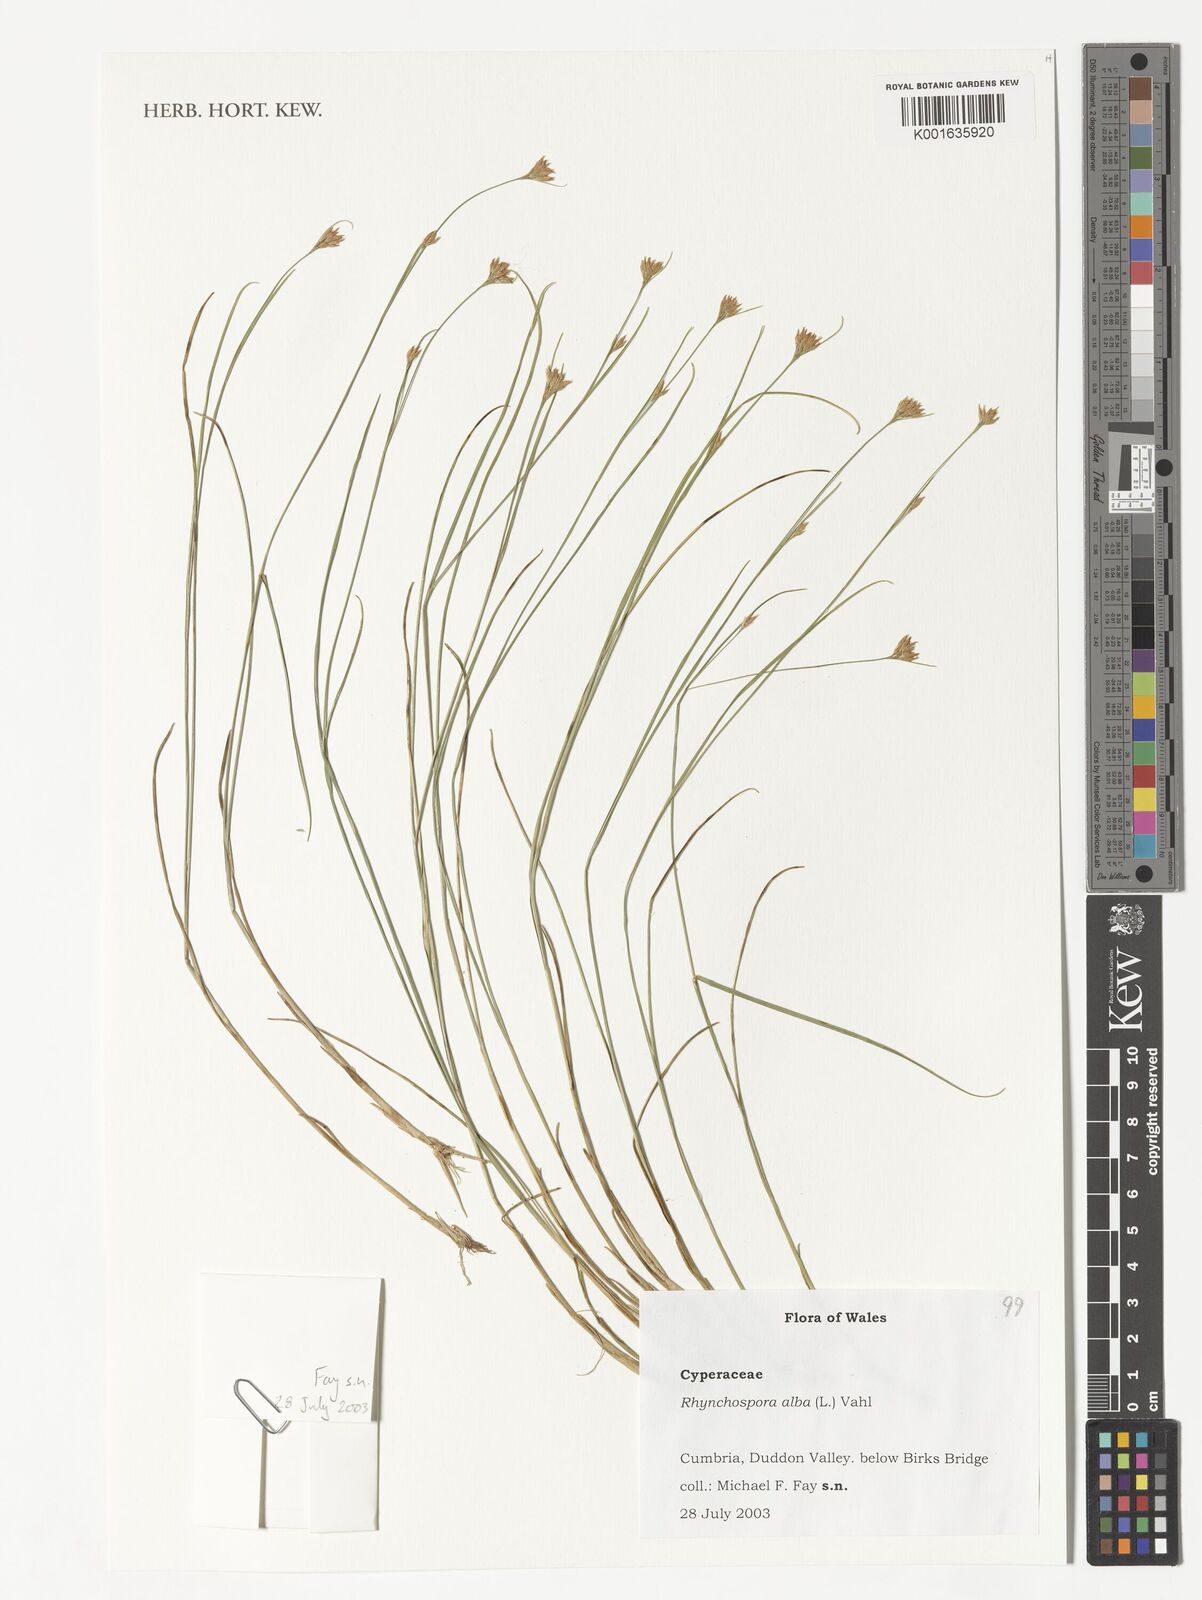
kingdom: Plantae
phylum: Tracheophyta
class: Liliopsida
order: Poales
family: Cyperaceae
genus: Rhynchospora
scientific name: Rhynchospora alba
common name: White beak-sedge
